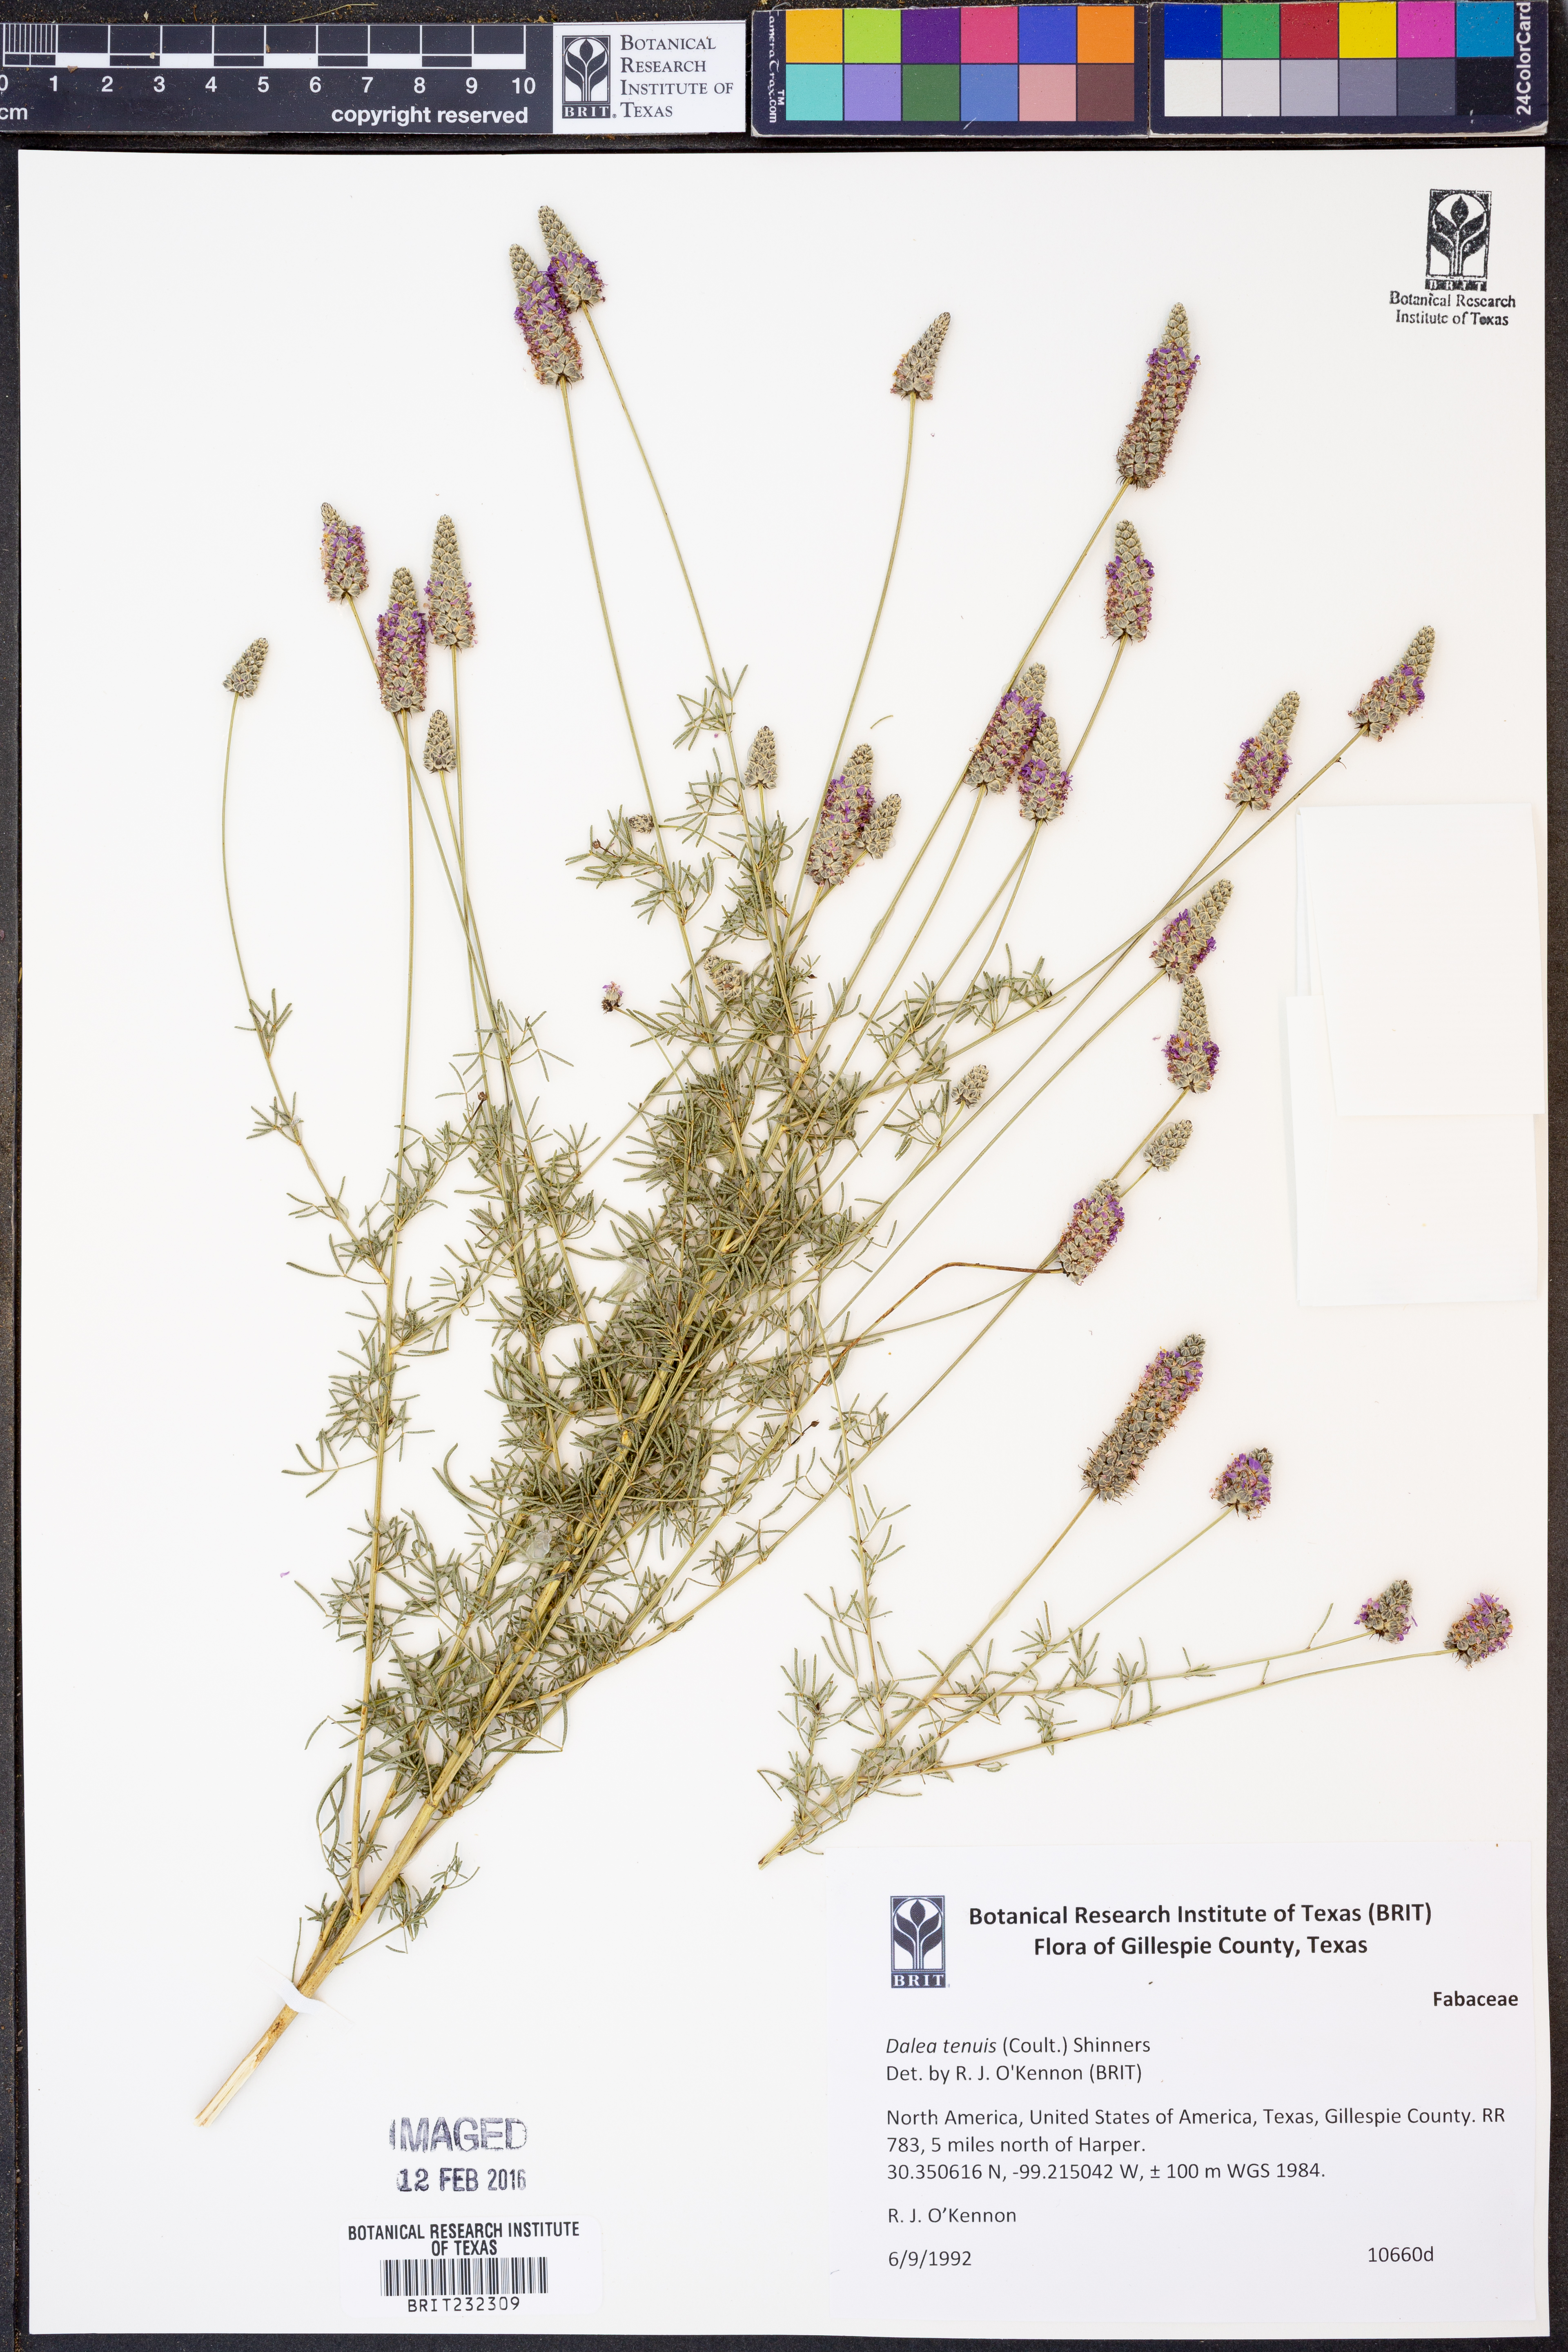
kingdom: Plantae
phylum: Tracheophyta
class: Magnoliopsida
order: Fabales
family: Fabaceae
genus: Dalea
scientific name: Dalea tenuis
